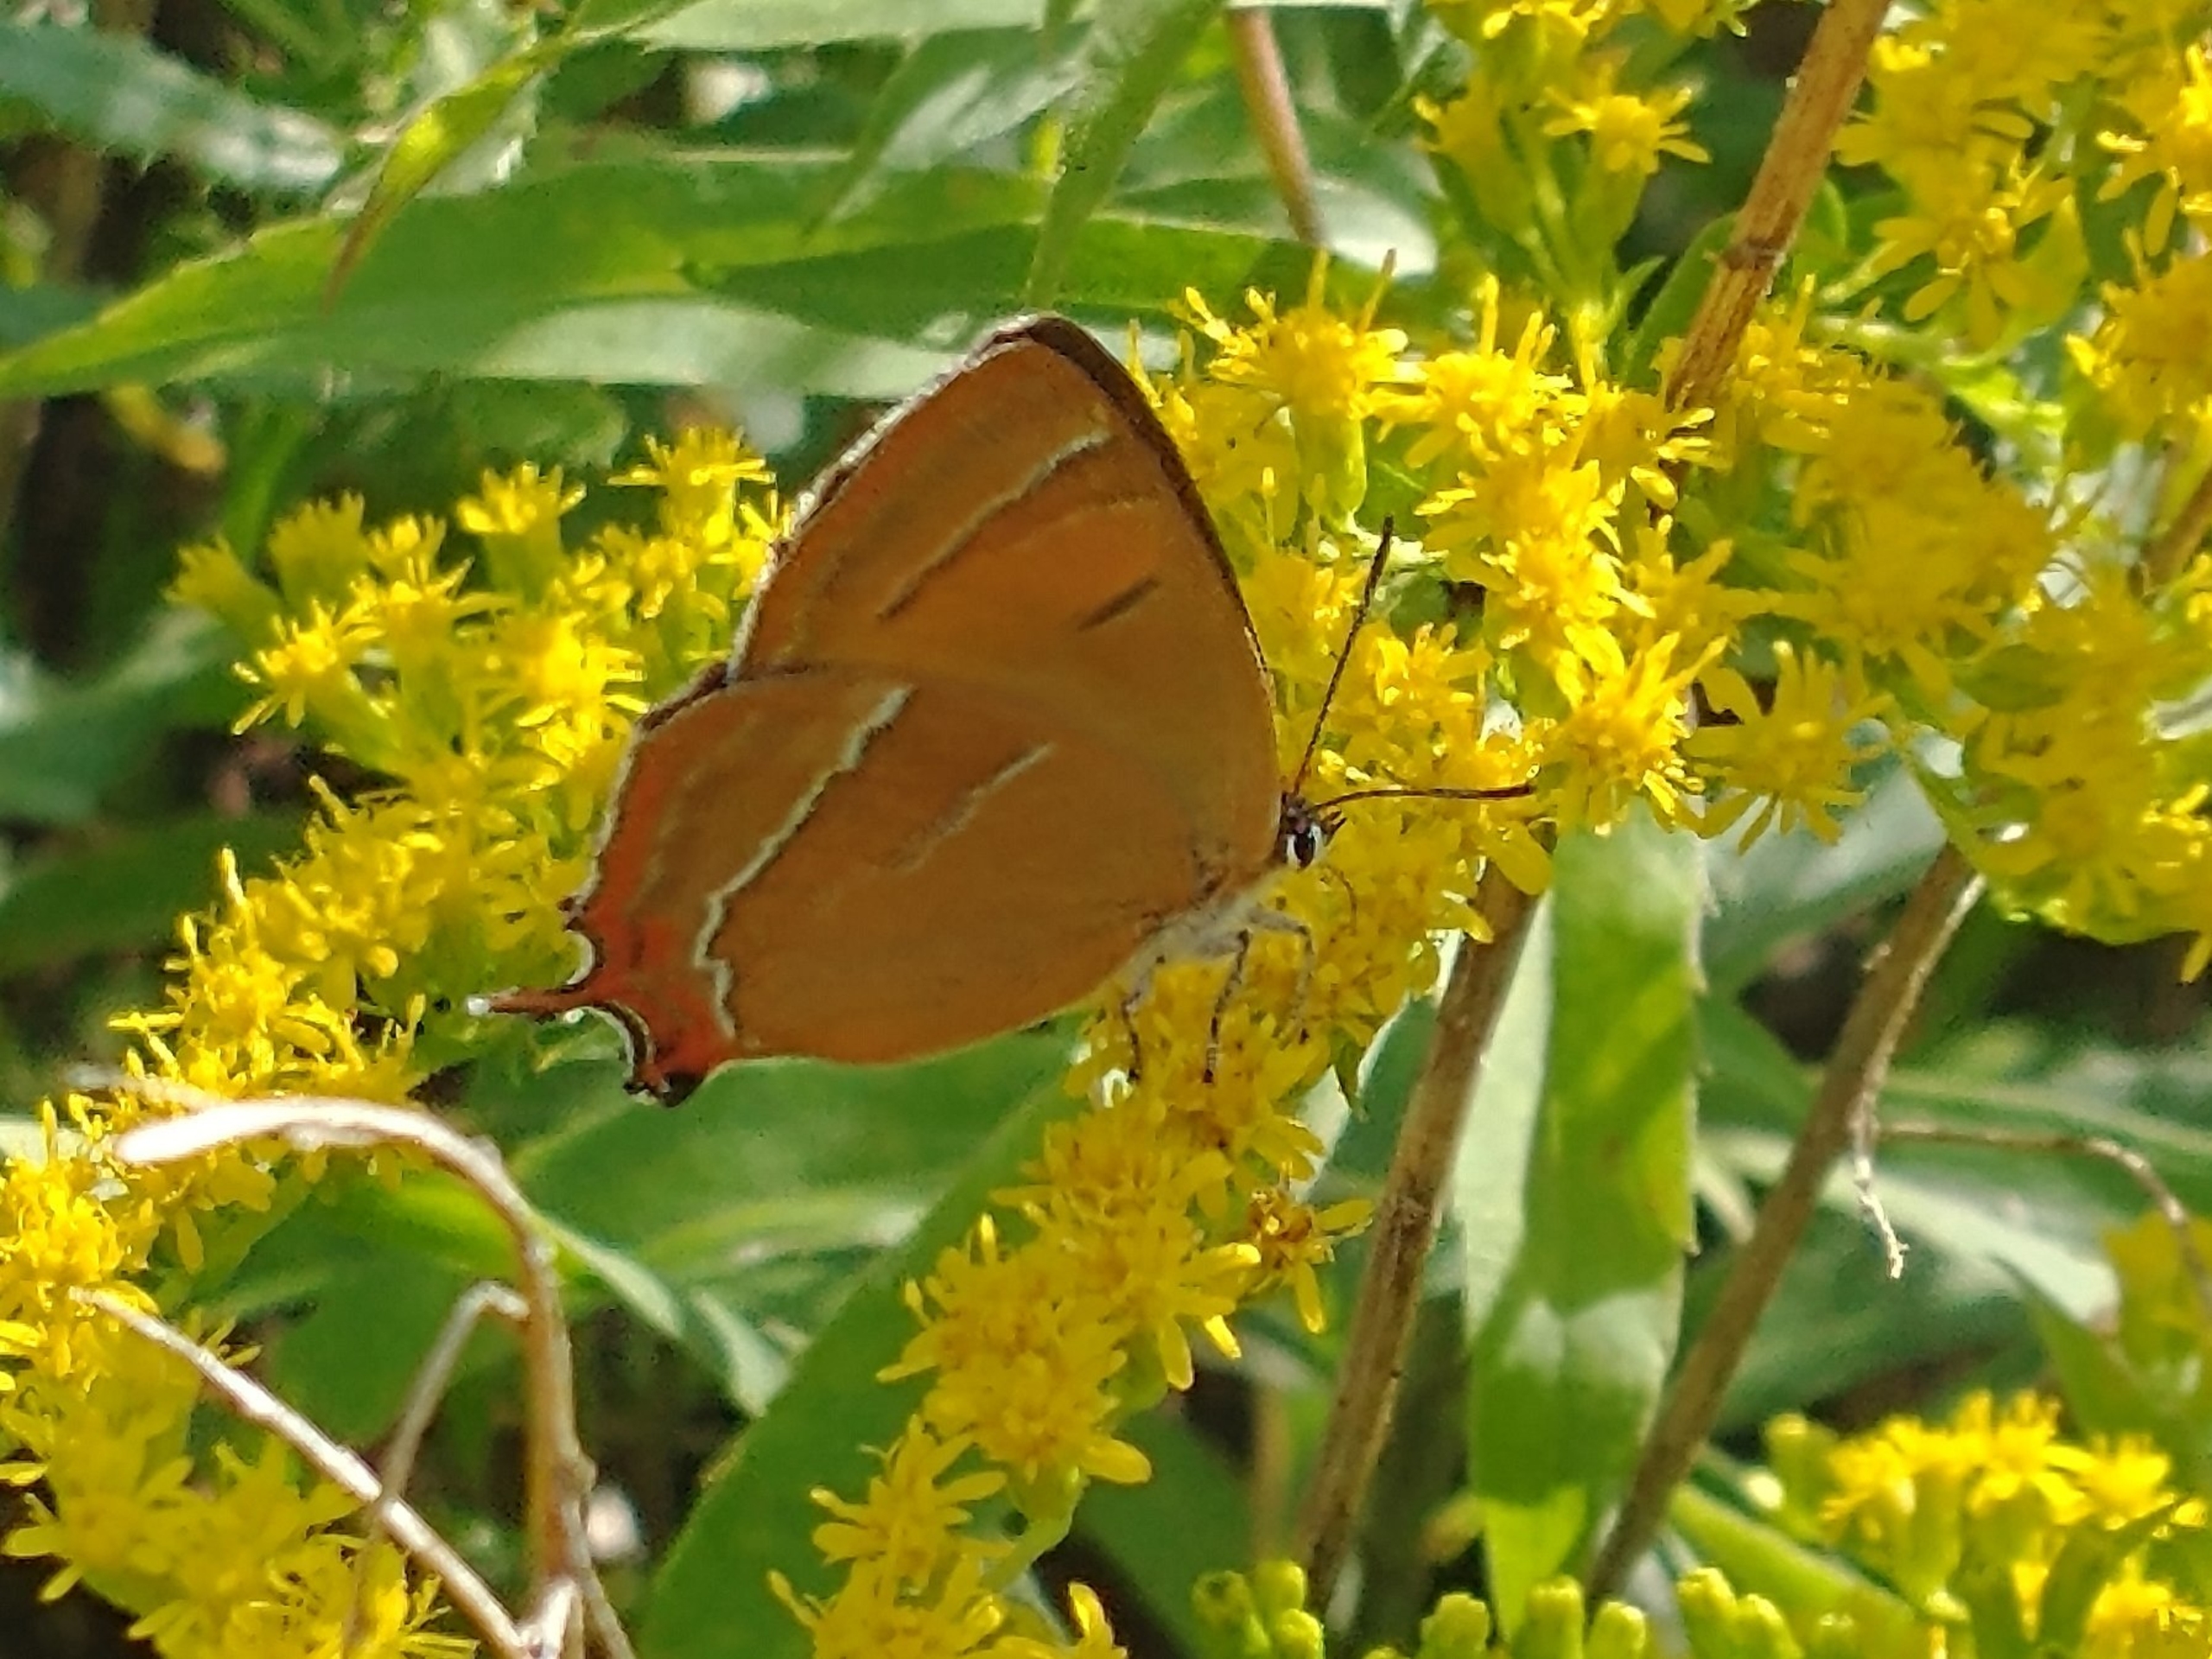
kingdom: Animalia
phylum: Arthropoda
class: Insecta
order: Lepidoptera
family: Lycaenidae
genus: Thecla
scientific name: Thecla betulae
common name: Guldhale
